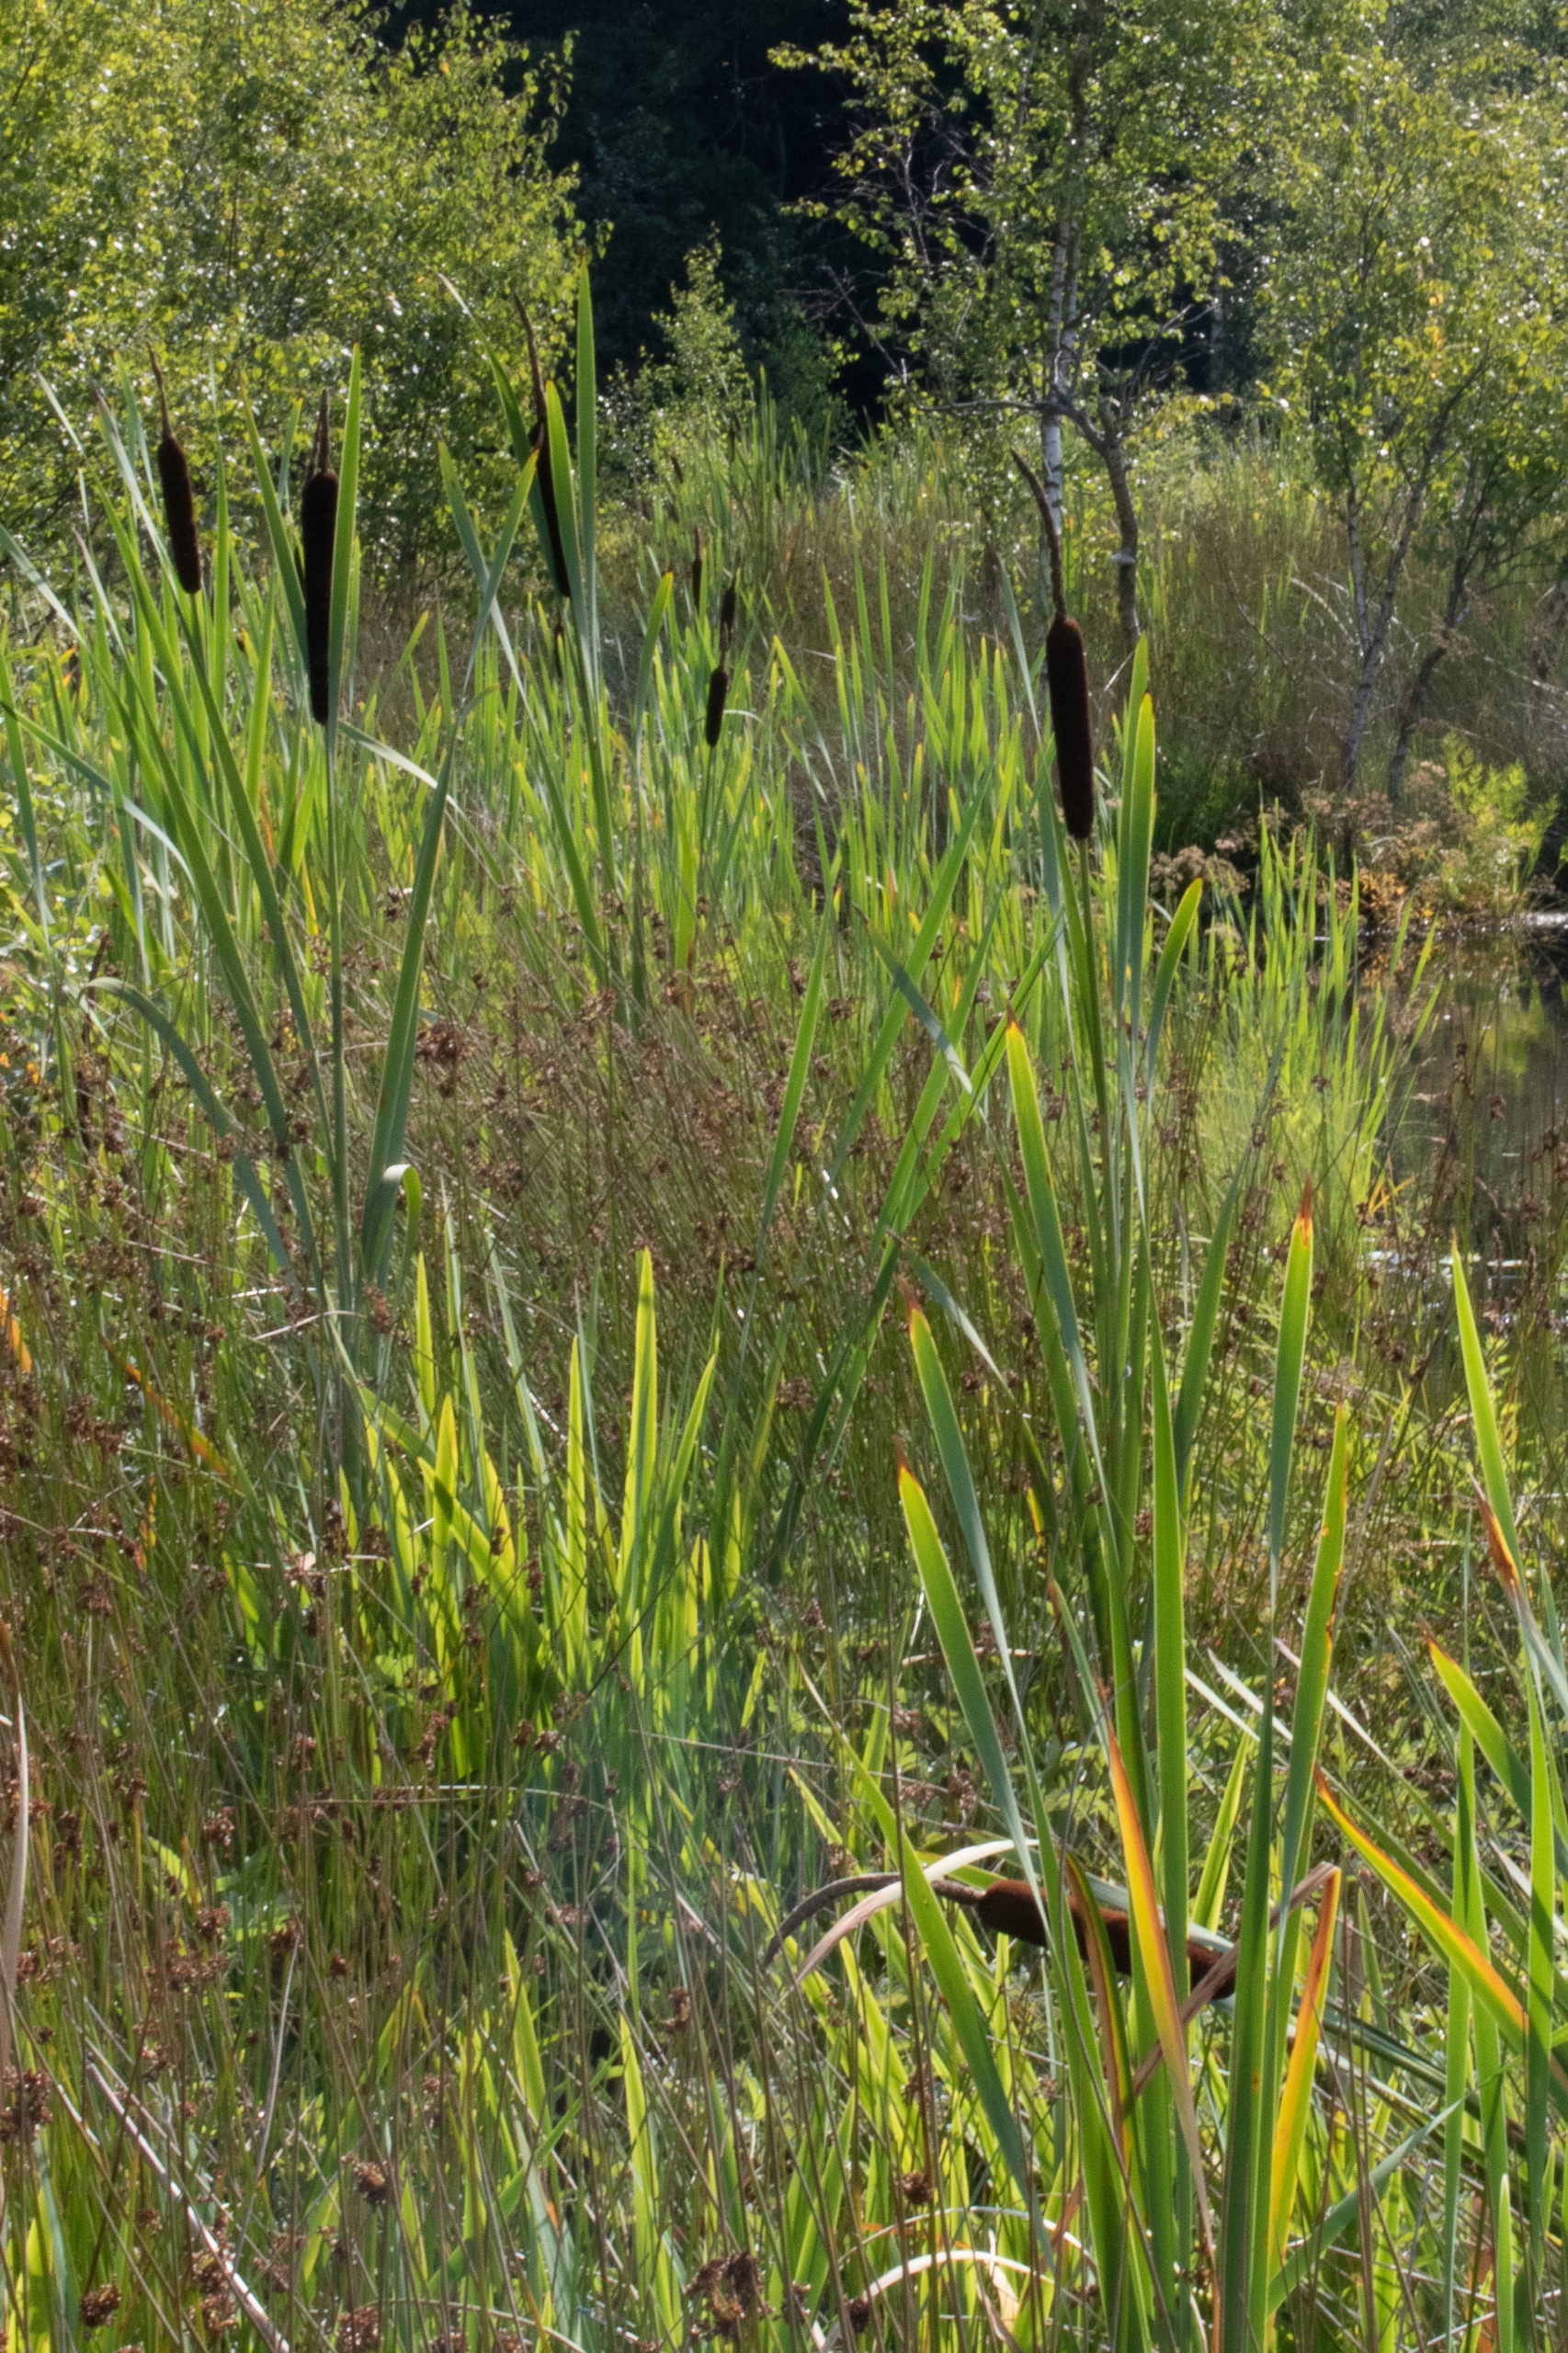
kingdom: Plantae
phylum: Tracheophyta
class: Liliopsida
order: Poales
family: Typhaceae
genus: Typha
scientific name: Typha latifolia
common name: Bredbladet dunhammer
